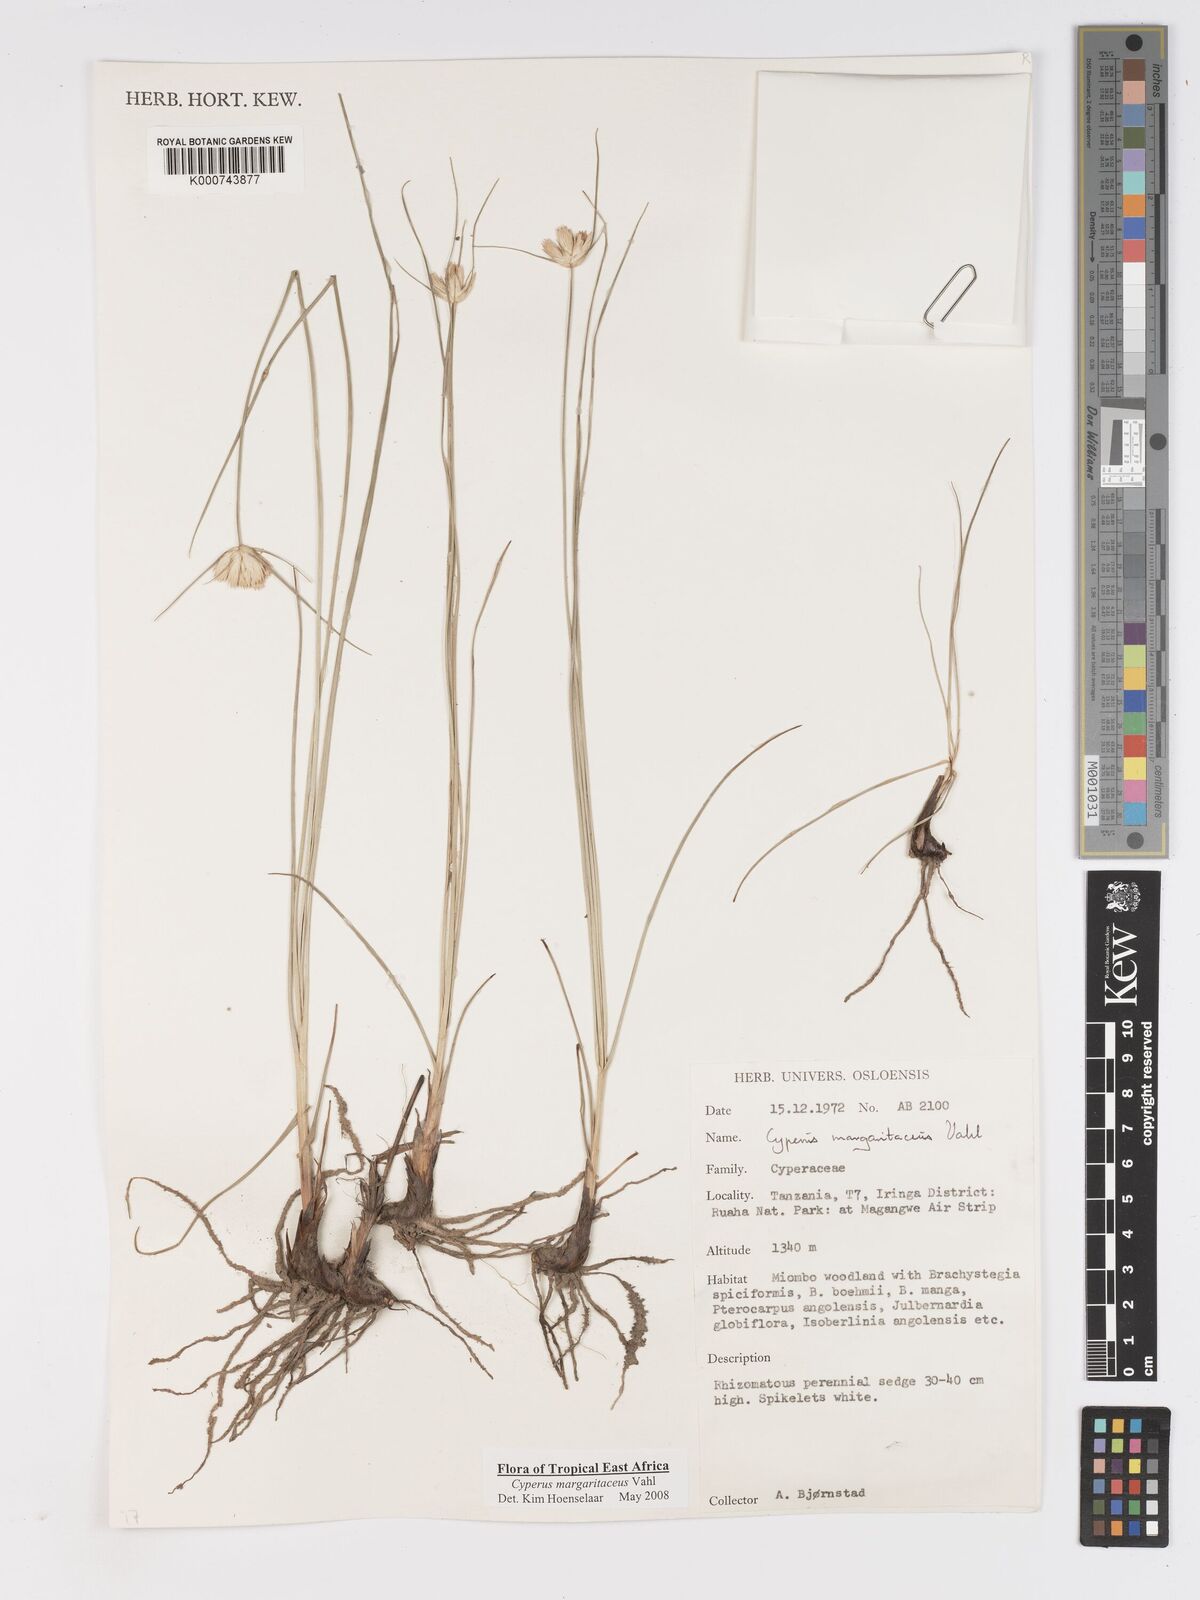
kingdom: Plantae
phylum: Tracheophyta
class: Liliopsida
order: Poales
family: Cyperaceae
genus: Cyperus
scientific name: Cyperus margaritaceus
